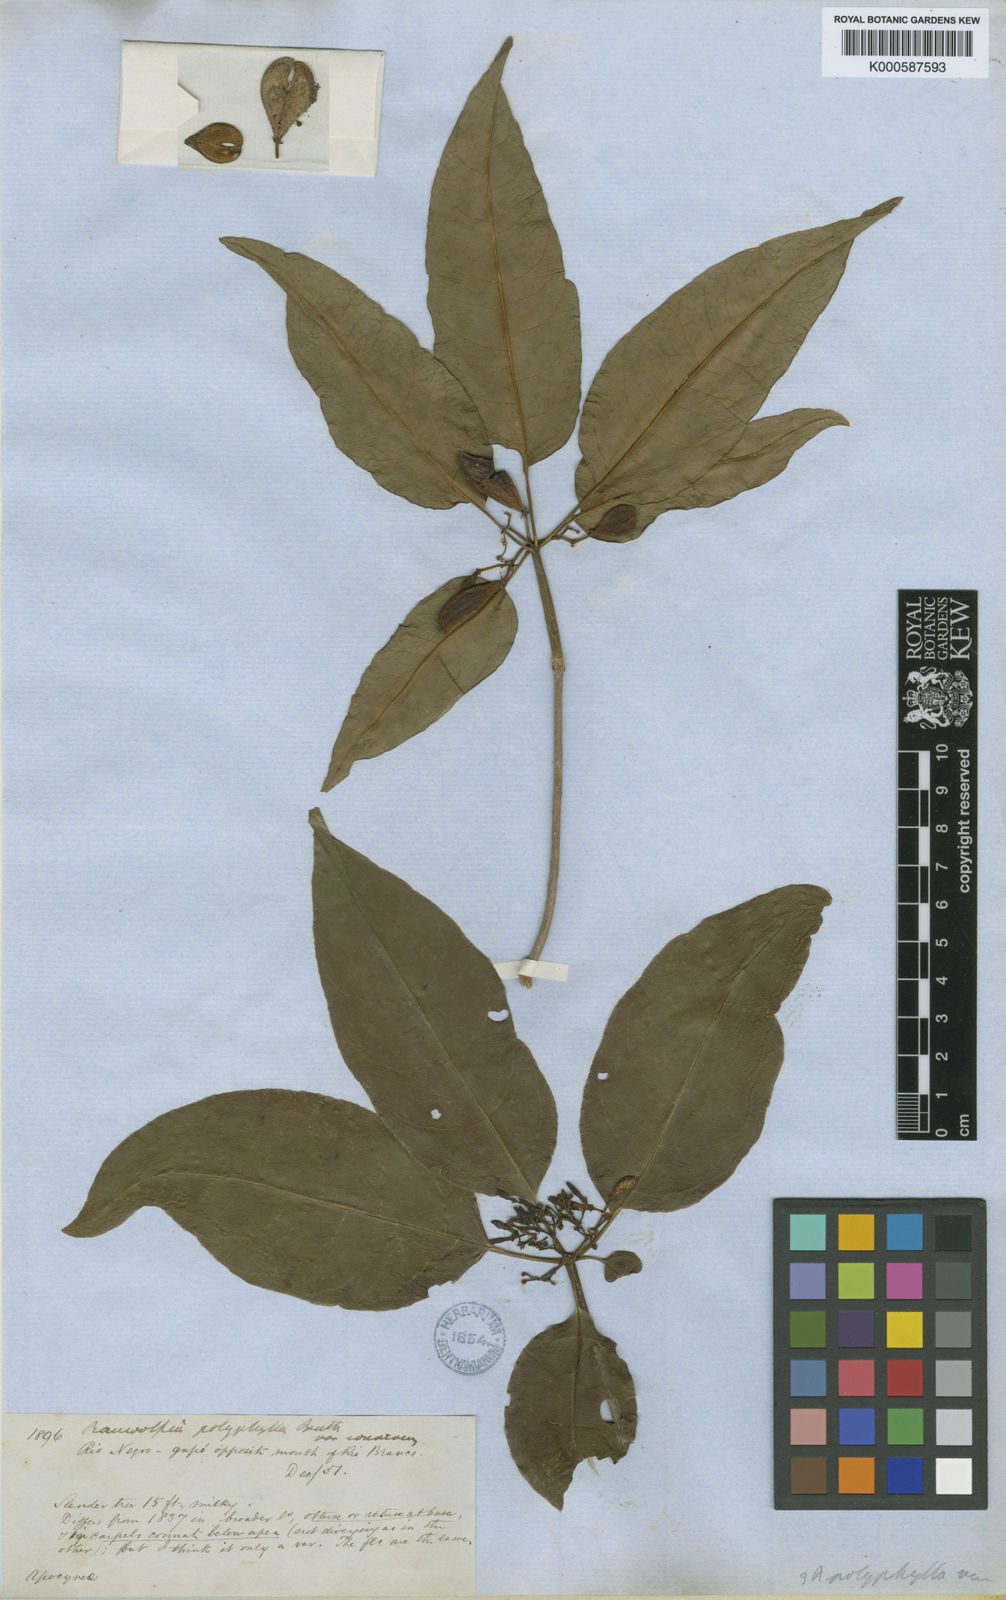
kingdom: Plantae
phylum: Tracheophyta
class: Magnoliopsida
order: Gentianales
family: Apocynaceae
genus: Rauvolfia
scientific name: Rauvolfia polyphylla
